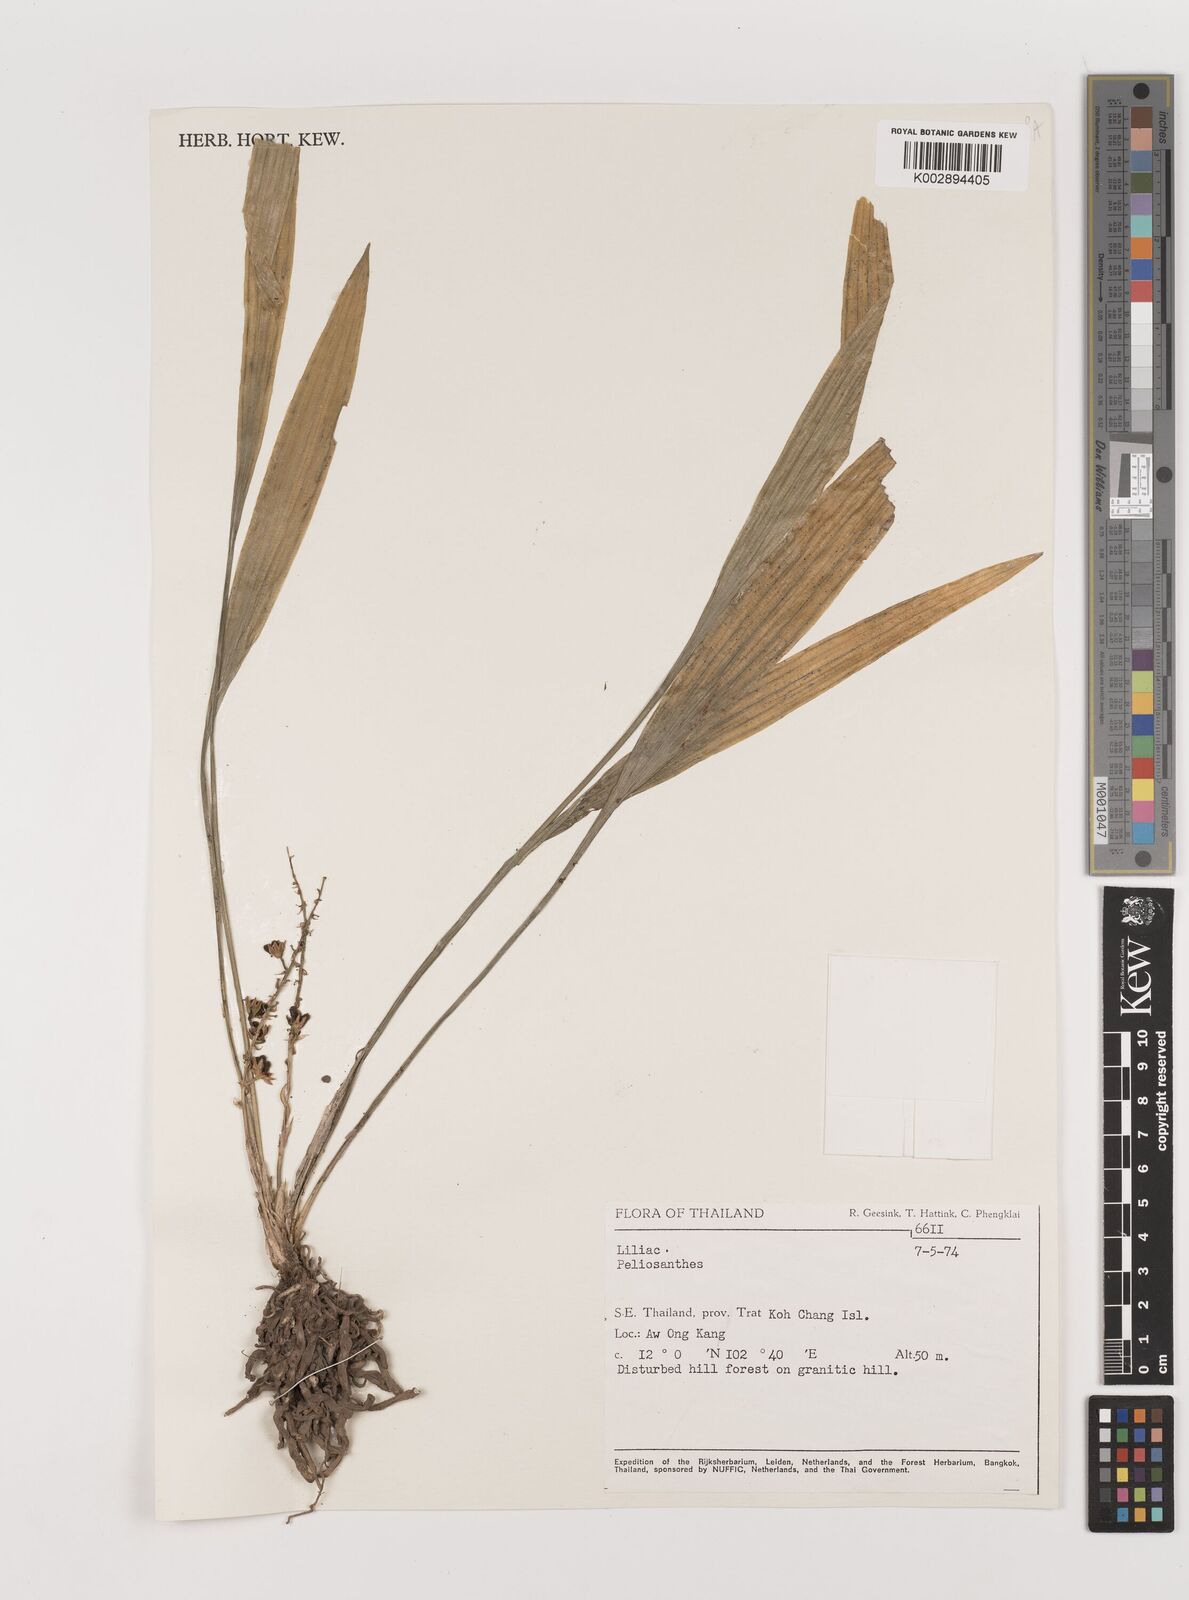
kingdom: Plantae
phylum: Tracheophyta
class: Liliopsida
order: Asparagales
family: Asparagaceae
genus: Peliosanthes
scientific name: Peliosanthes
